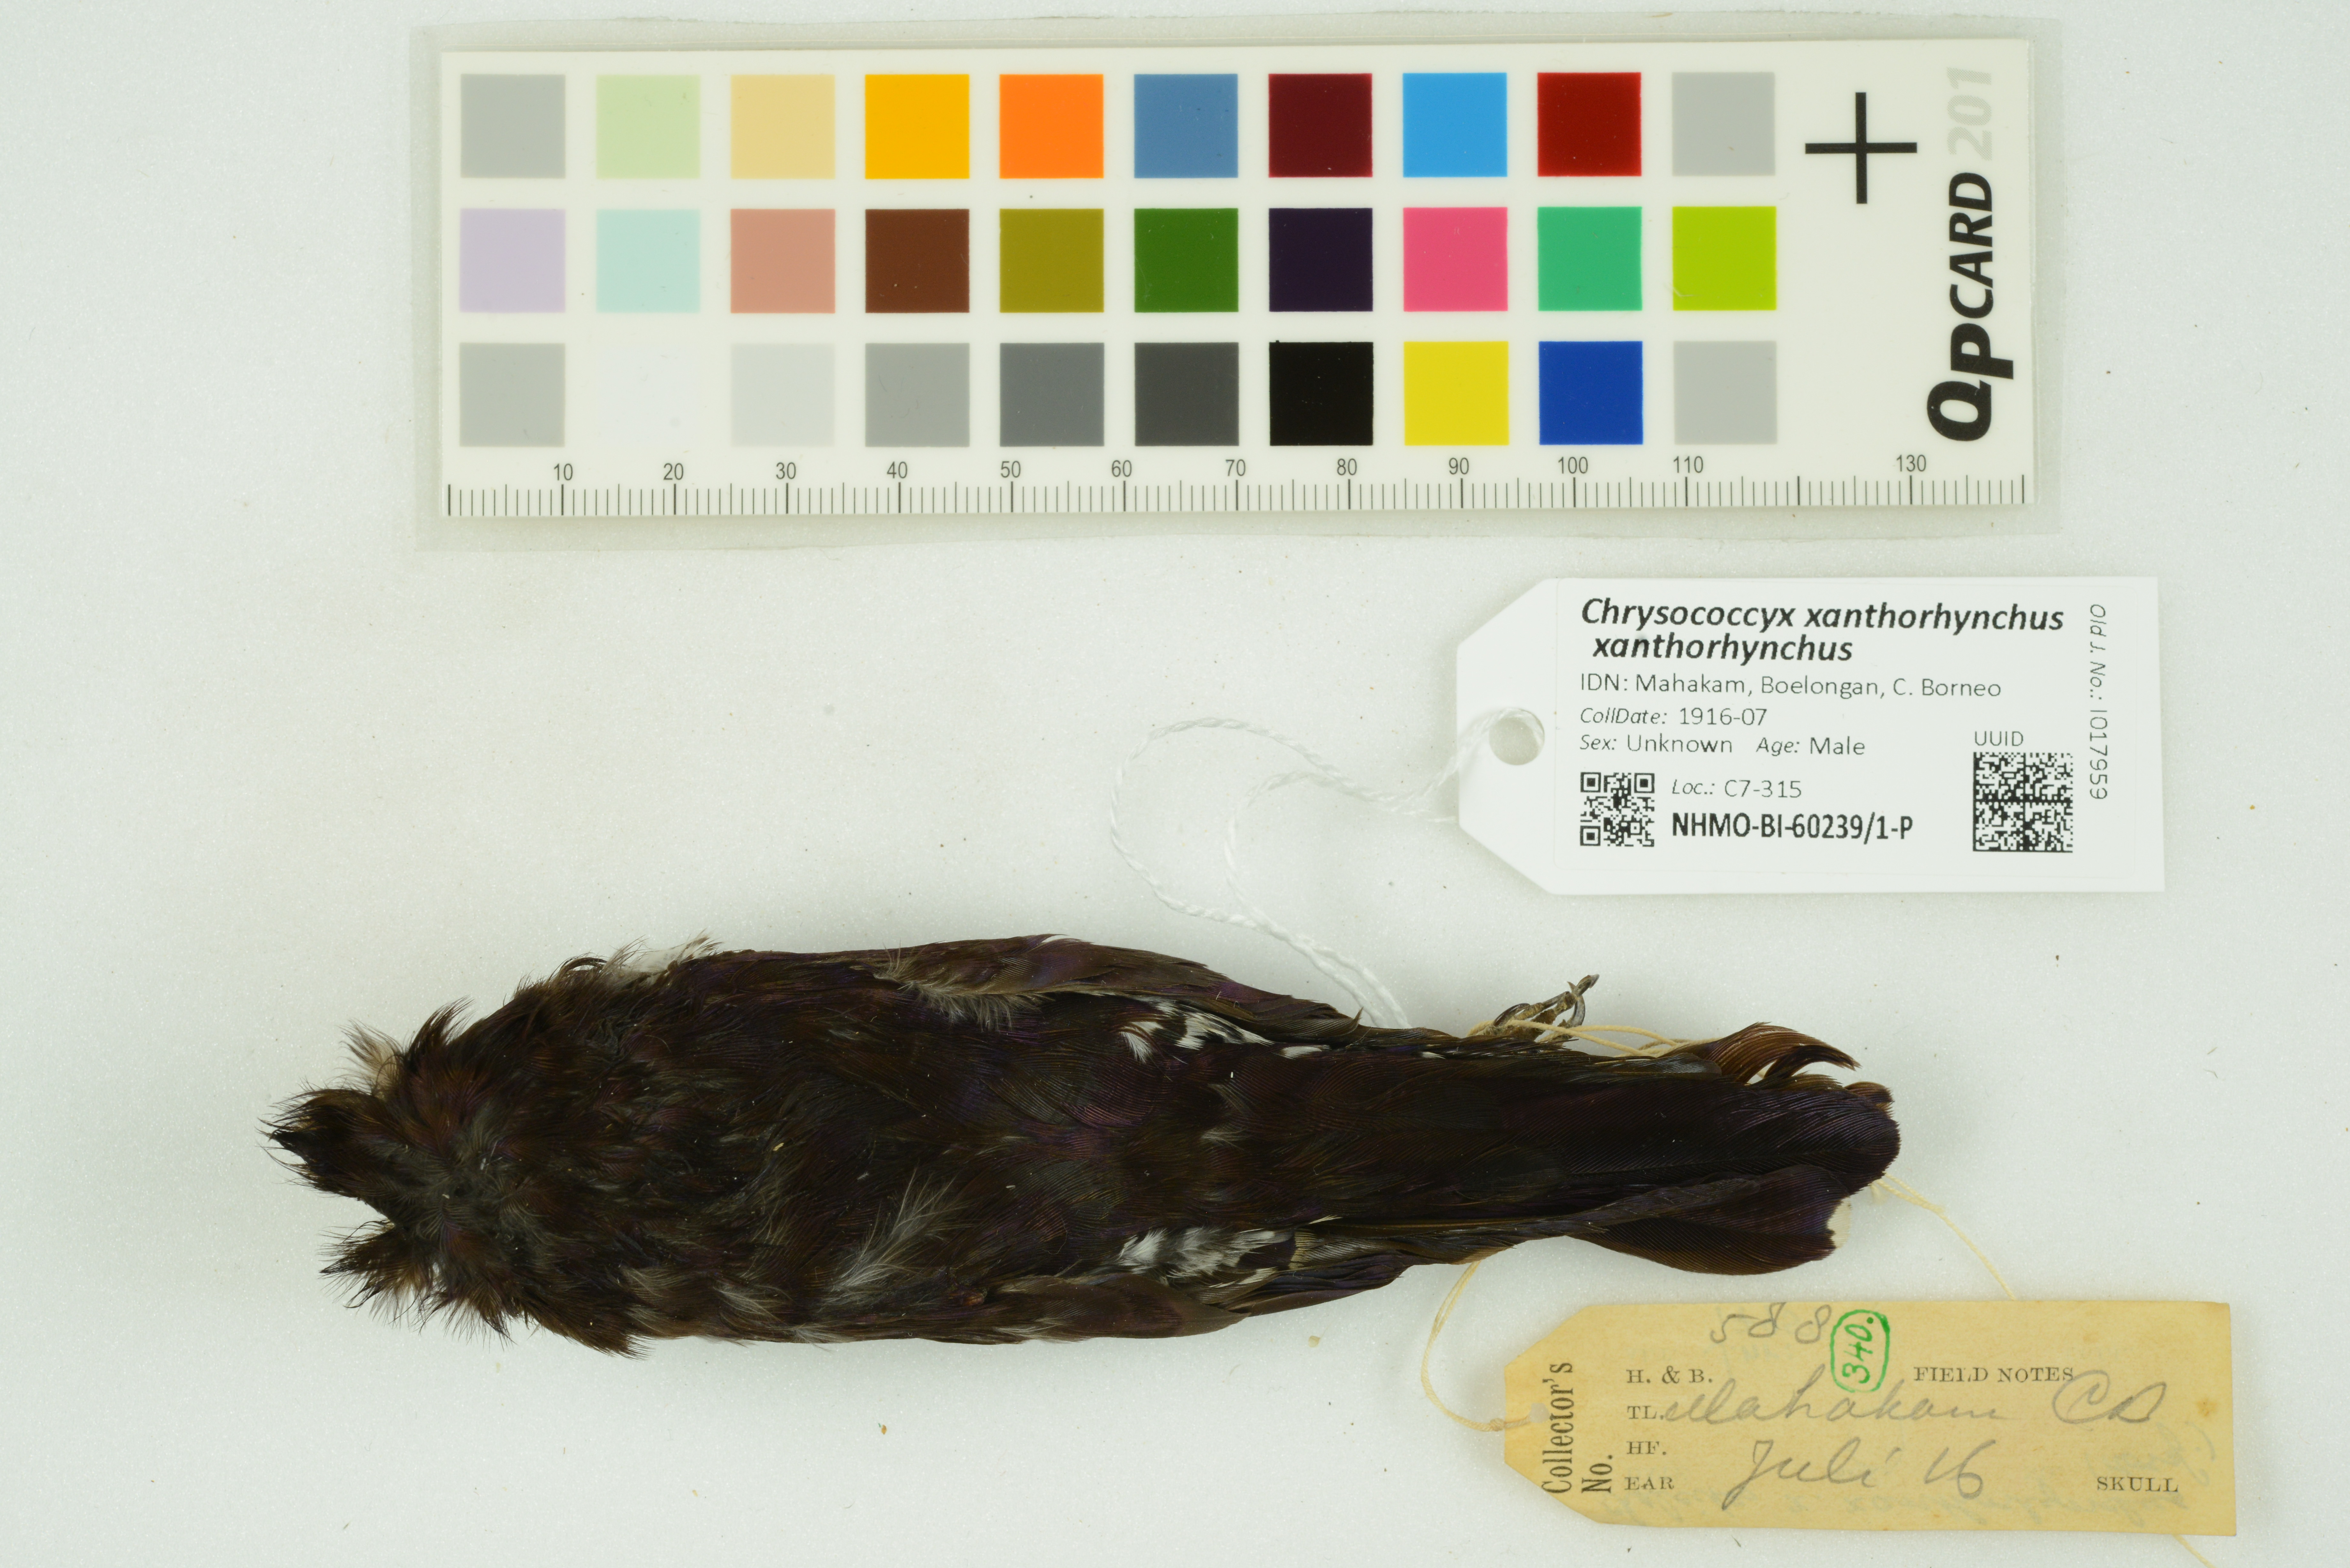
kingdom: Animalia
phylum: Chordata
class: Aves
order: Cuculiformes
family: Cuculidae
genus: Chrysococcyx
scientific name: Chrysococcyx xanthorhynchus
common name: Violet cuckoo
